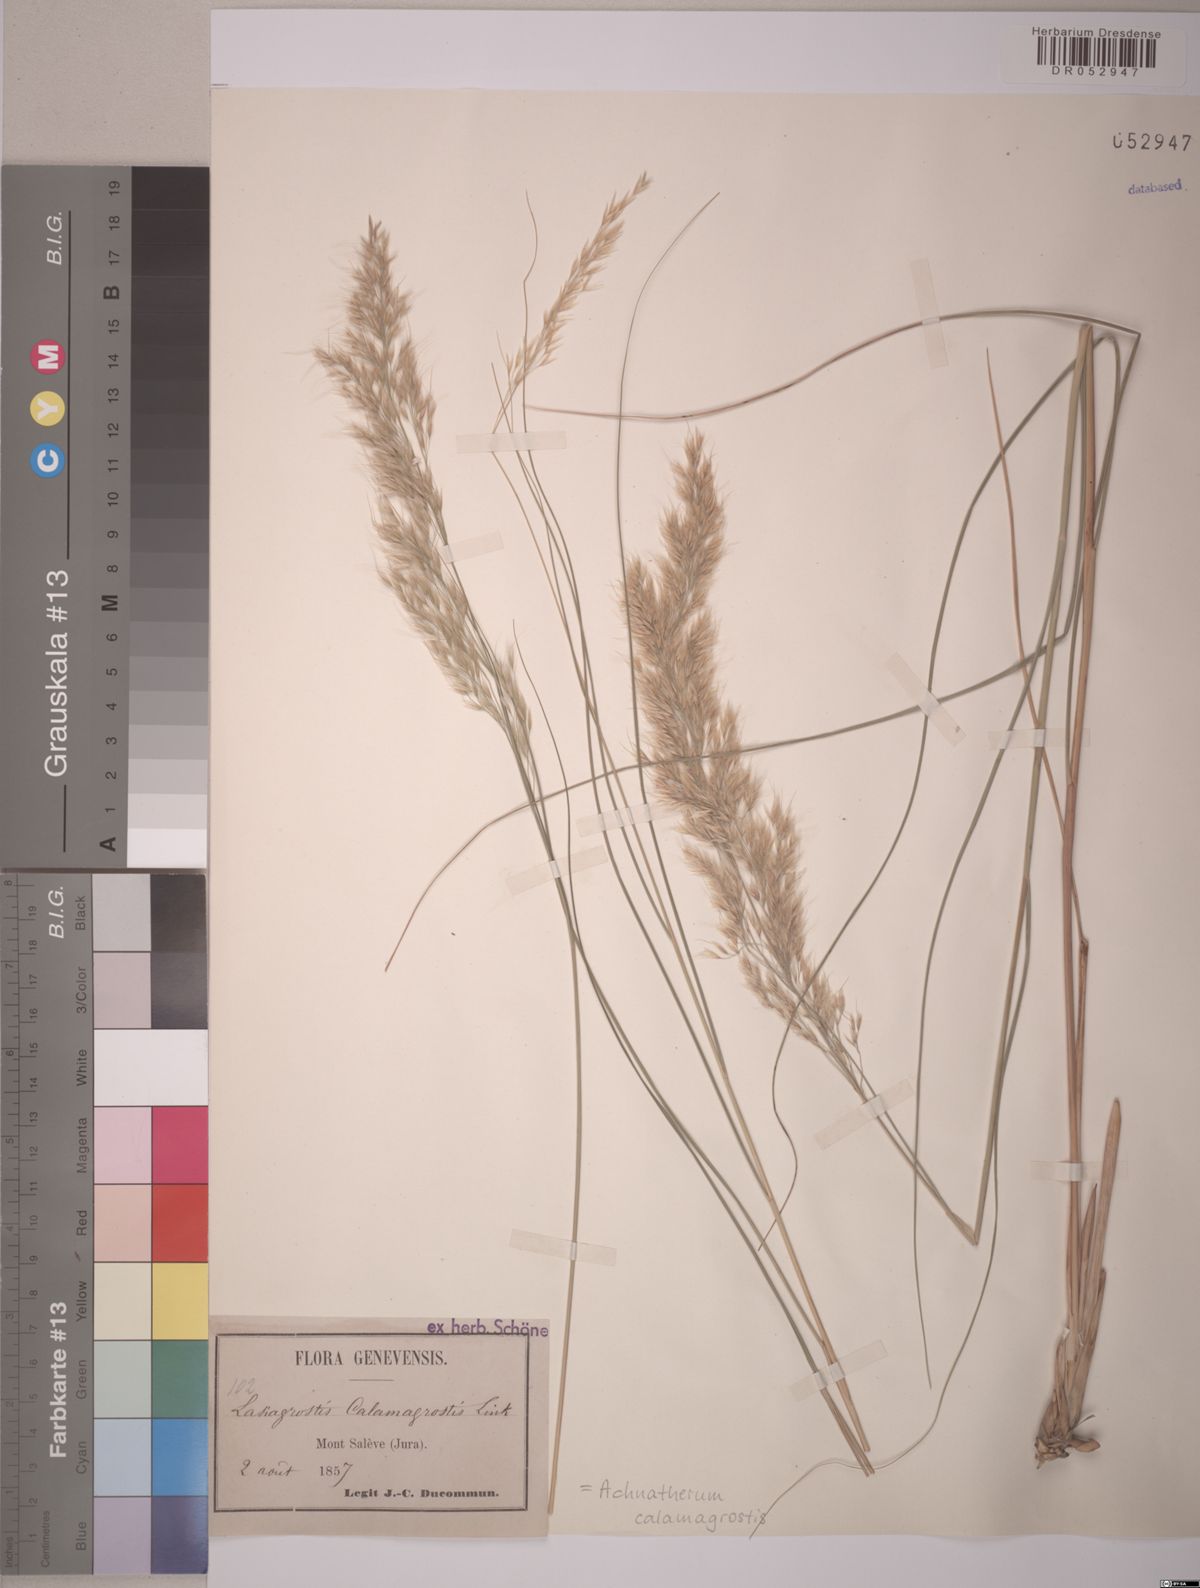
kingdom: Plantae
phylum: Tracheophyta
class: Liliopsida
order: Poales
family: Poaceae
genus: Achnatherum
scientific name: Achnatherum calamagrostis
